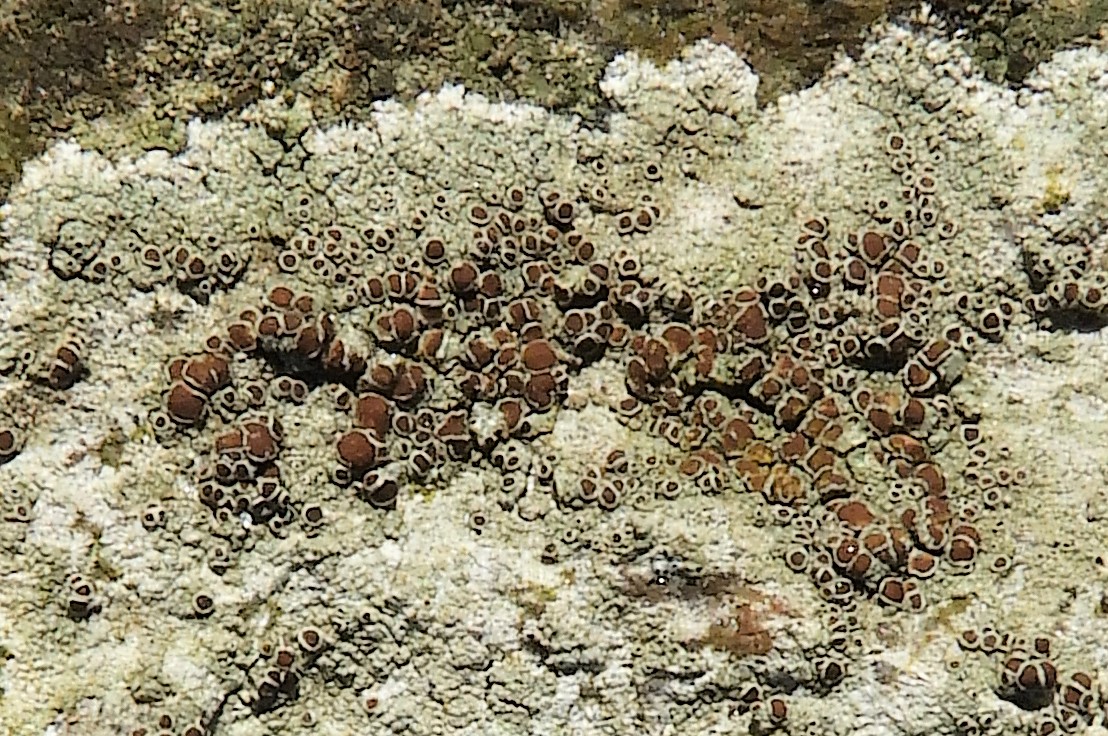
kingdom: Fungi
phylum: Ascomycota
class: Lecanoromycetes
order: Lecanorales
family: Lecanoraceae
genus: Lecanora
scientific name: Lecanora chlarotera
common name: brun kantskivelav
